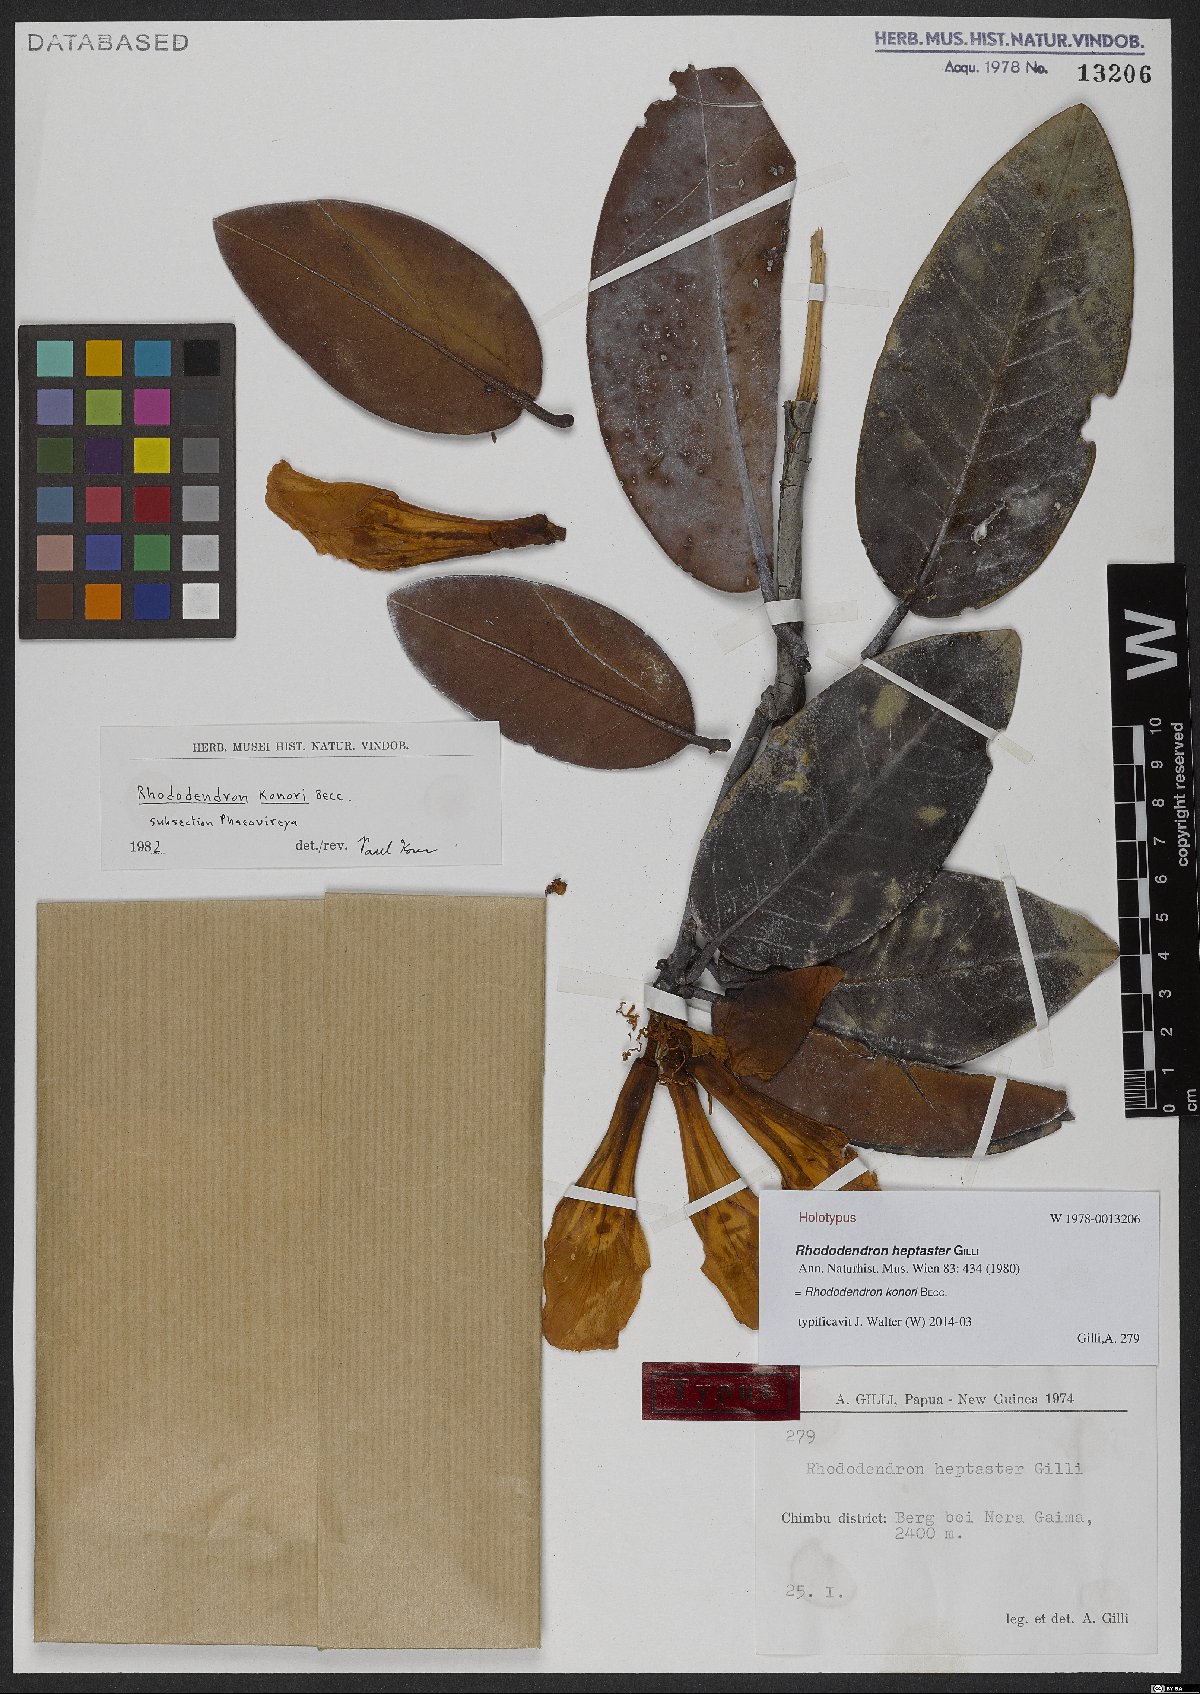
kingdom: Plantae
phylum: Tracheophyta
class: Magnoliopsida
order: Ericales
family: Ericaceae
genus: Rhododendron
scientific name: Rhododendron konori
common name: Konor rhododendron
